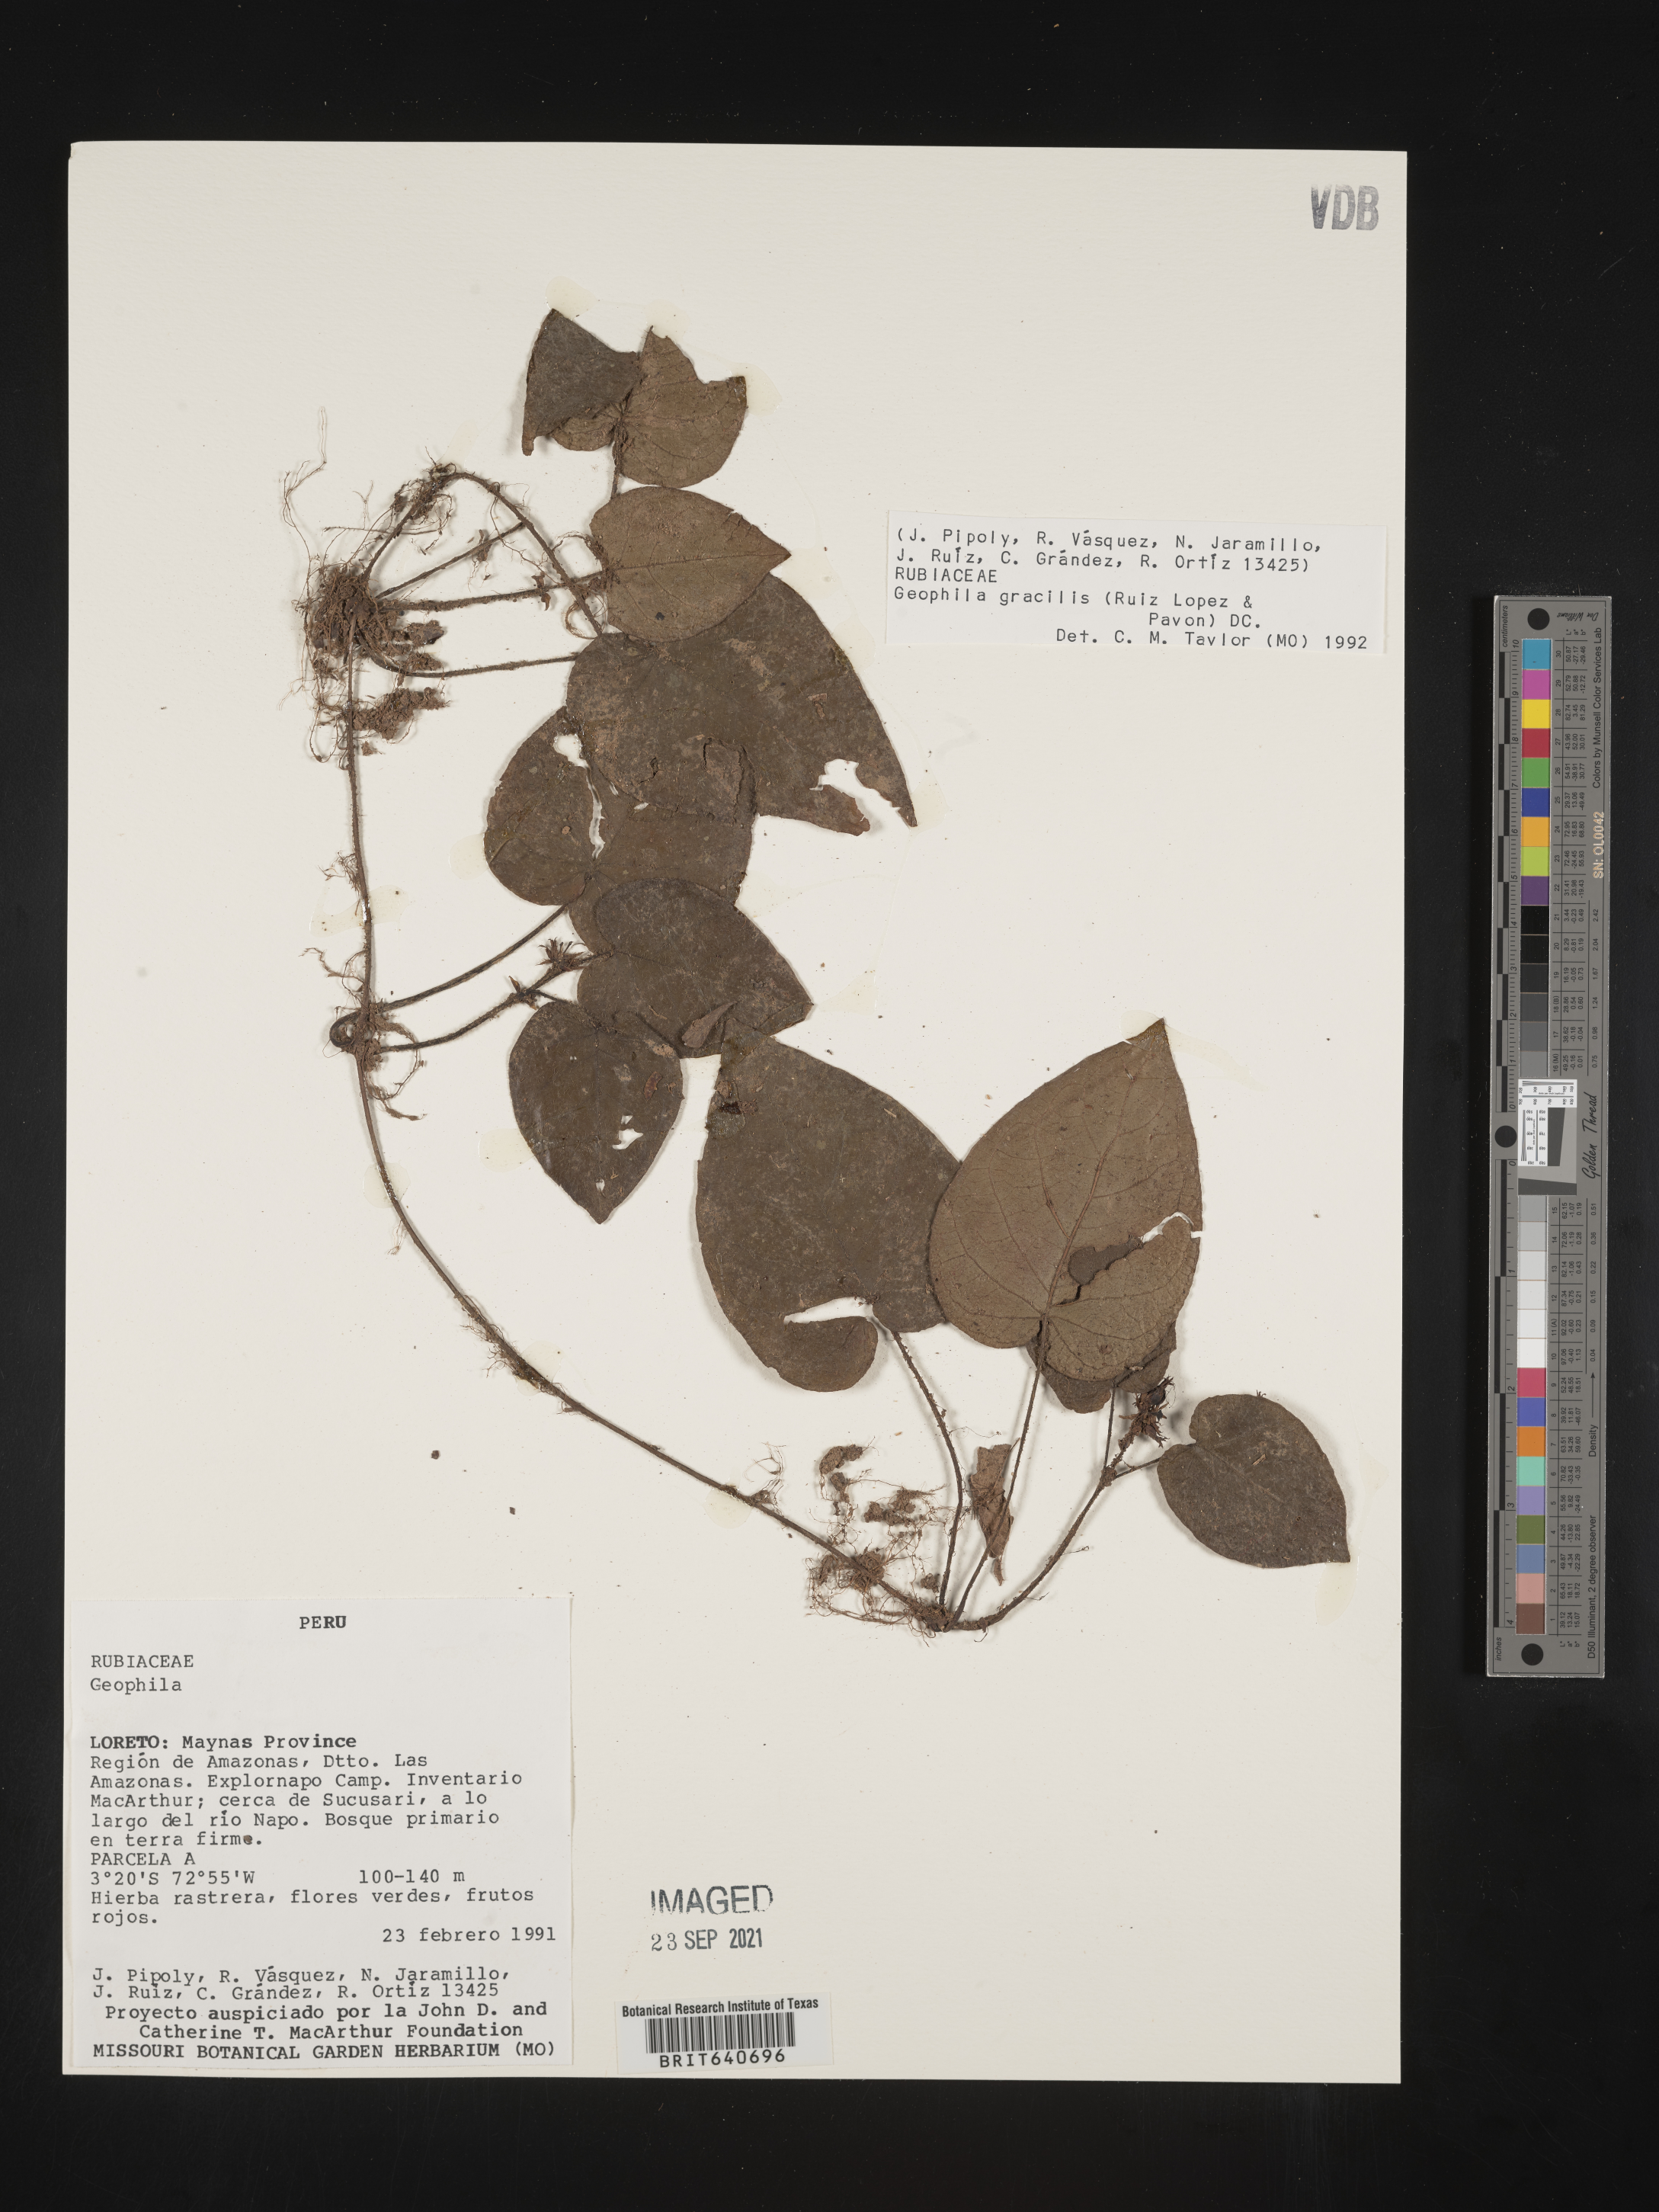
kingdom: Plantae
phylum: Tracheophyta
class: Magnoliopsida
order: Gentianales
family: Rubiaceae
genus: Geophila
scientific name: Geophila
